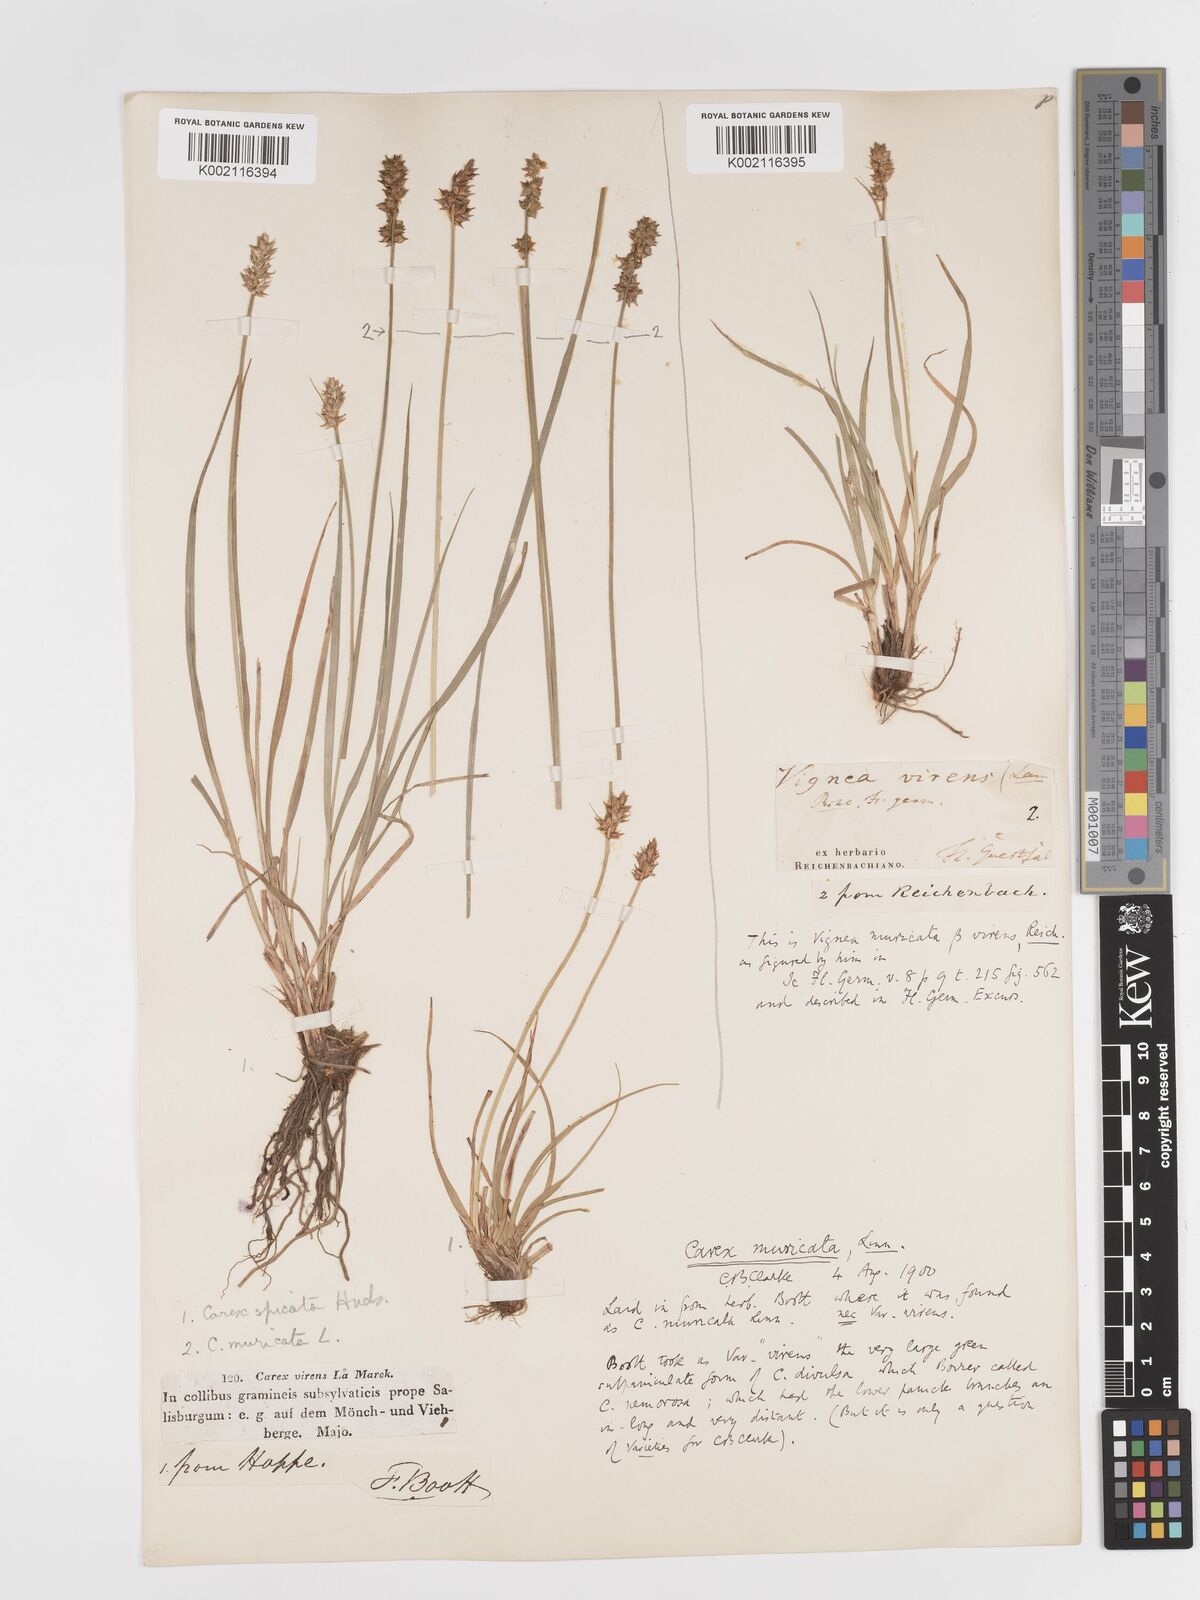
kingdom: Plantae
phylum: Tracheophyta
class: Liliopsida
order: Poales
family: Cyperaceae
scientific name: Cyperaceae
